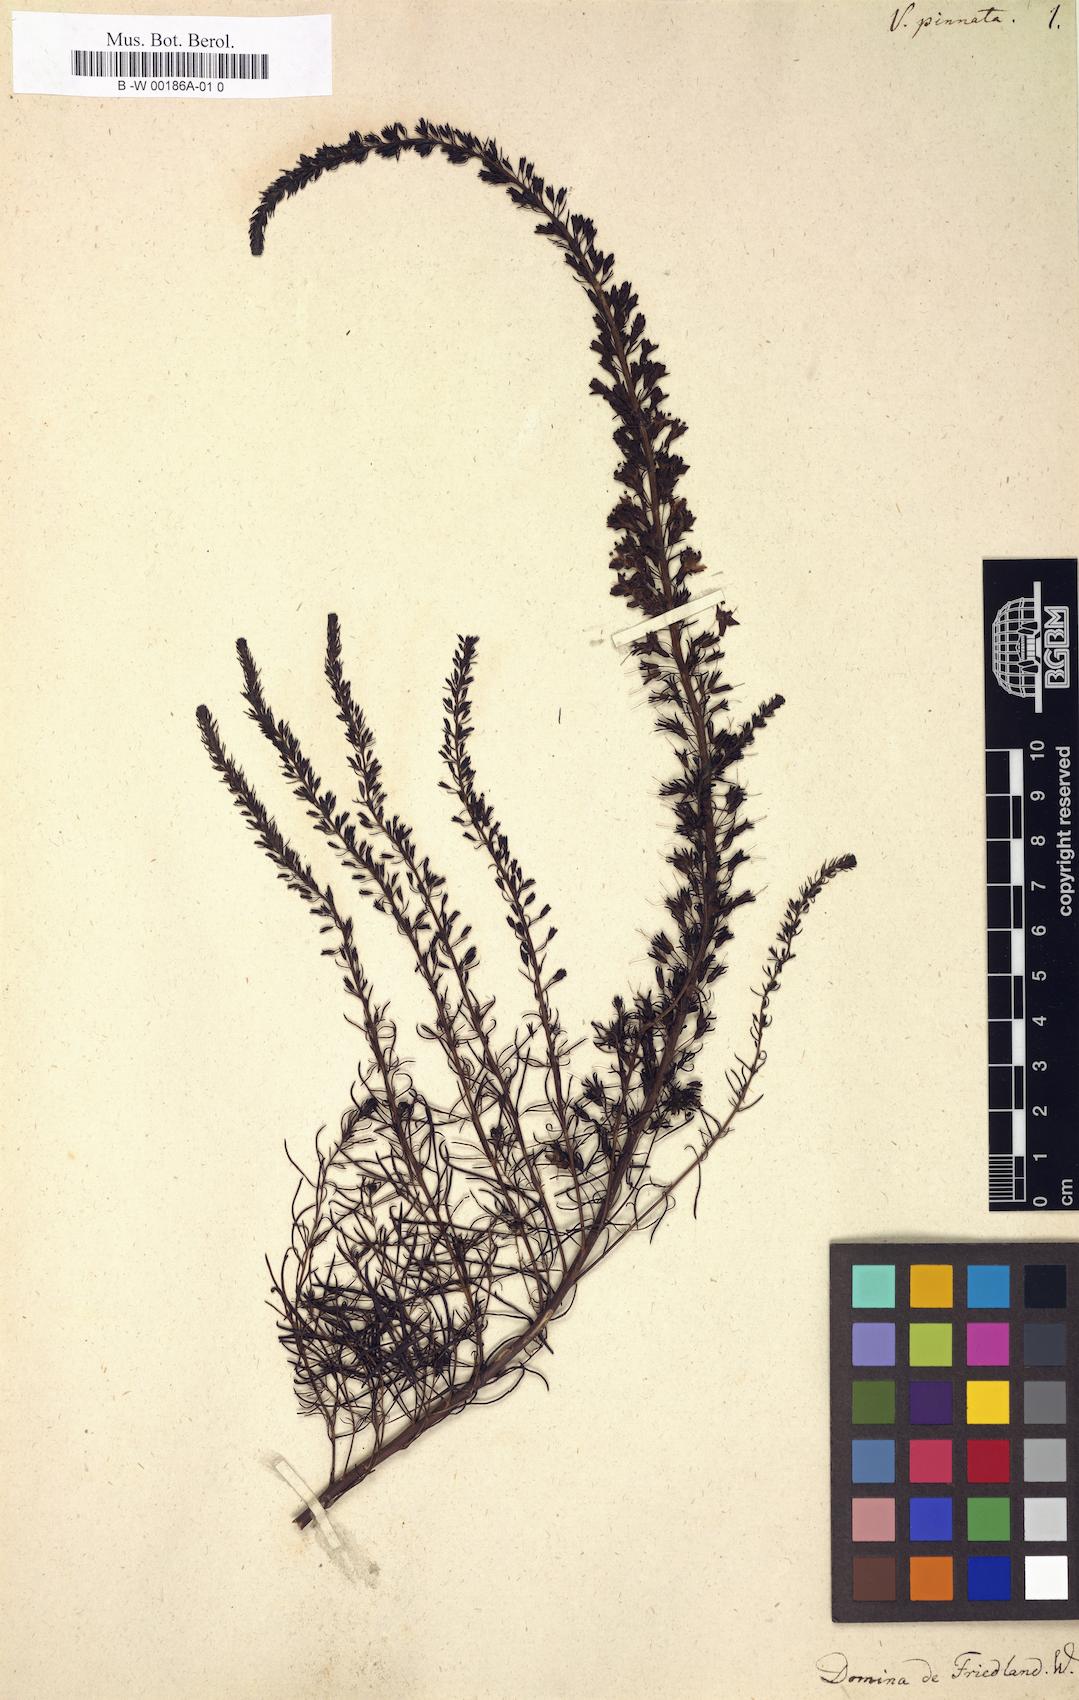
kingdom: Plantae
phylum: Tracheophyta
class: Magnoliopsida
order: Lamiales
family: Plantaginaceae
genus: Veronica
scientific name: Veronica pinnata
